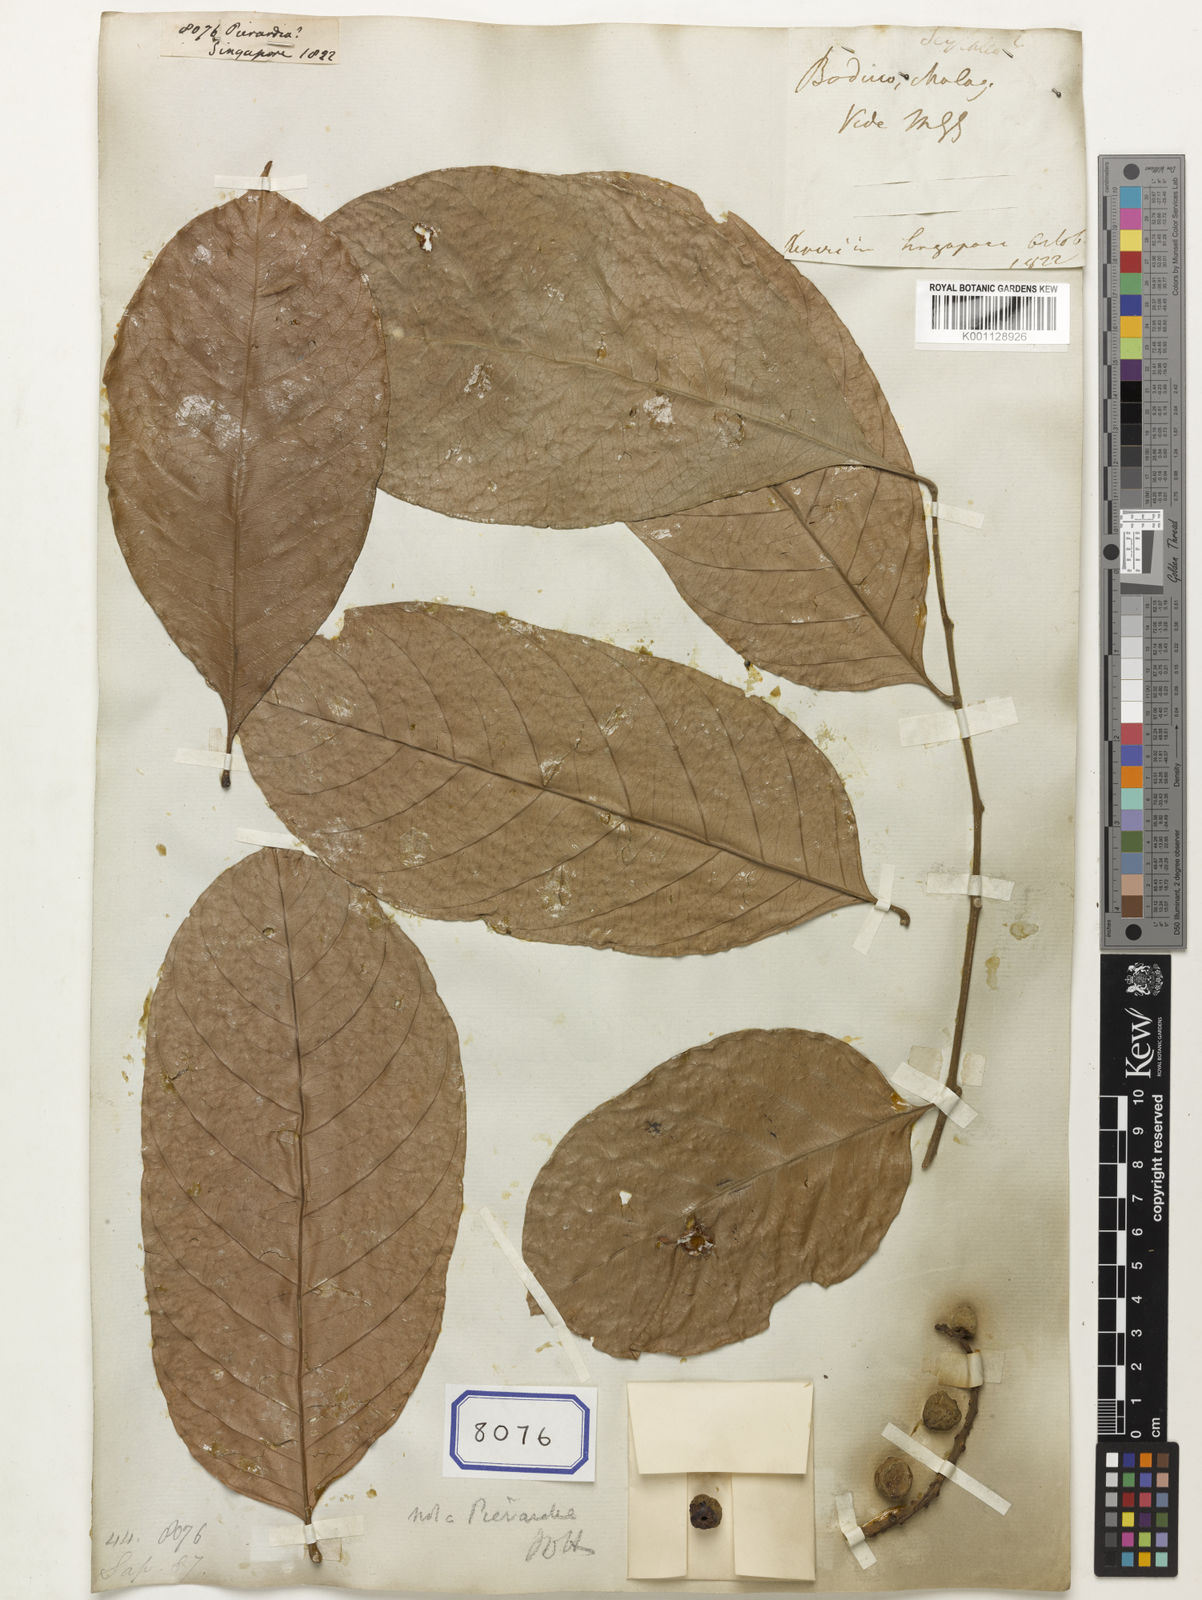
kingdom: Plantae
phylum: Tracheophyta
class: Magnoliopsida
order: Malpighiales
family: Phyllanthaceae
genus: Baccaurea
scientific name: Baccaurea
